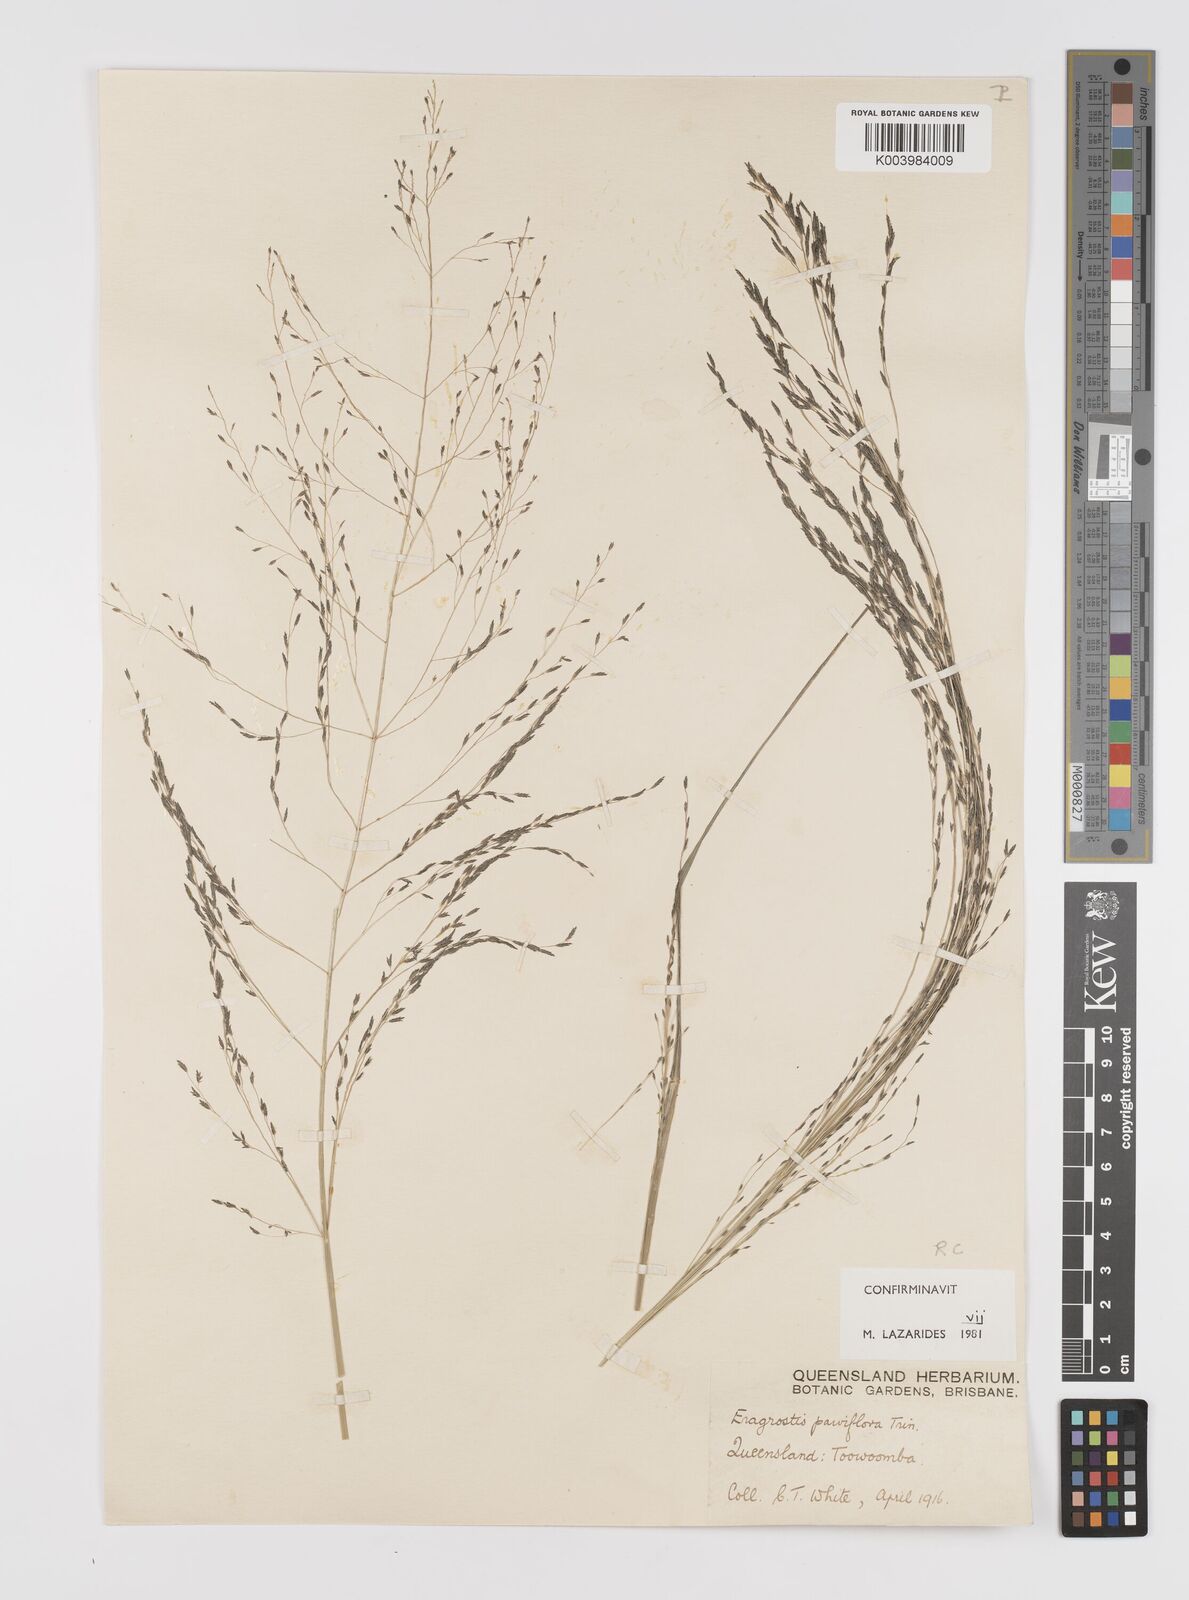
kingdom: Plantae
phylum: Tracheophyta
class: Liliopsida
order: Poales
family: Poaceae
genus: Eragrostis
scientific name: Eragrostis parviflora
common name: Weeping love-grass
